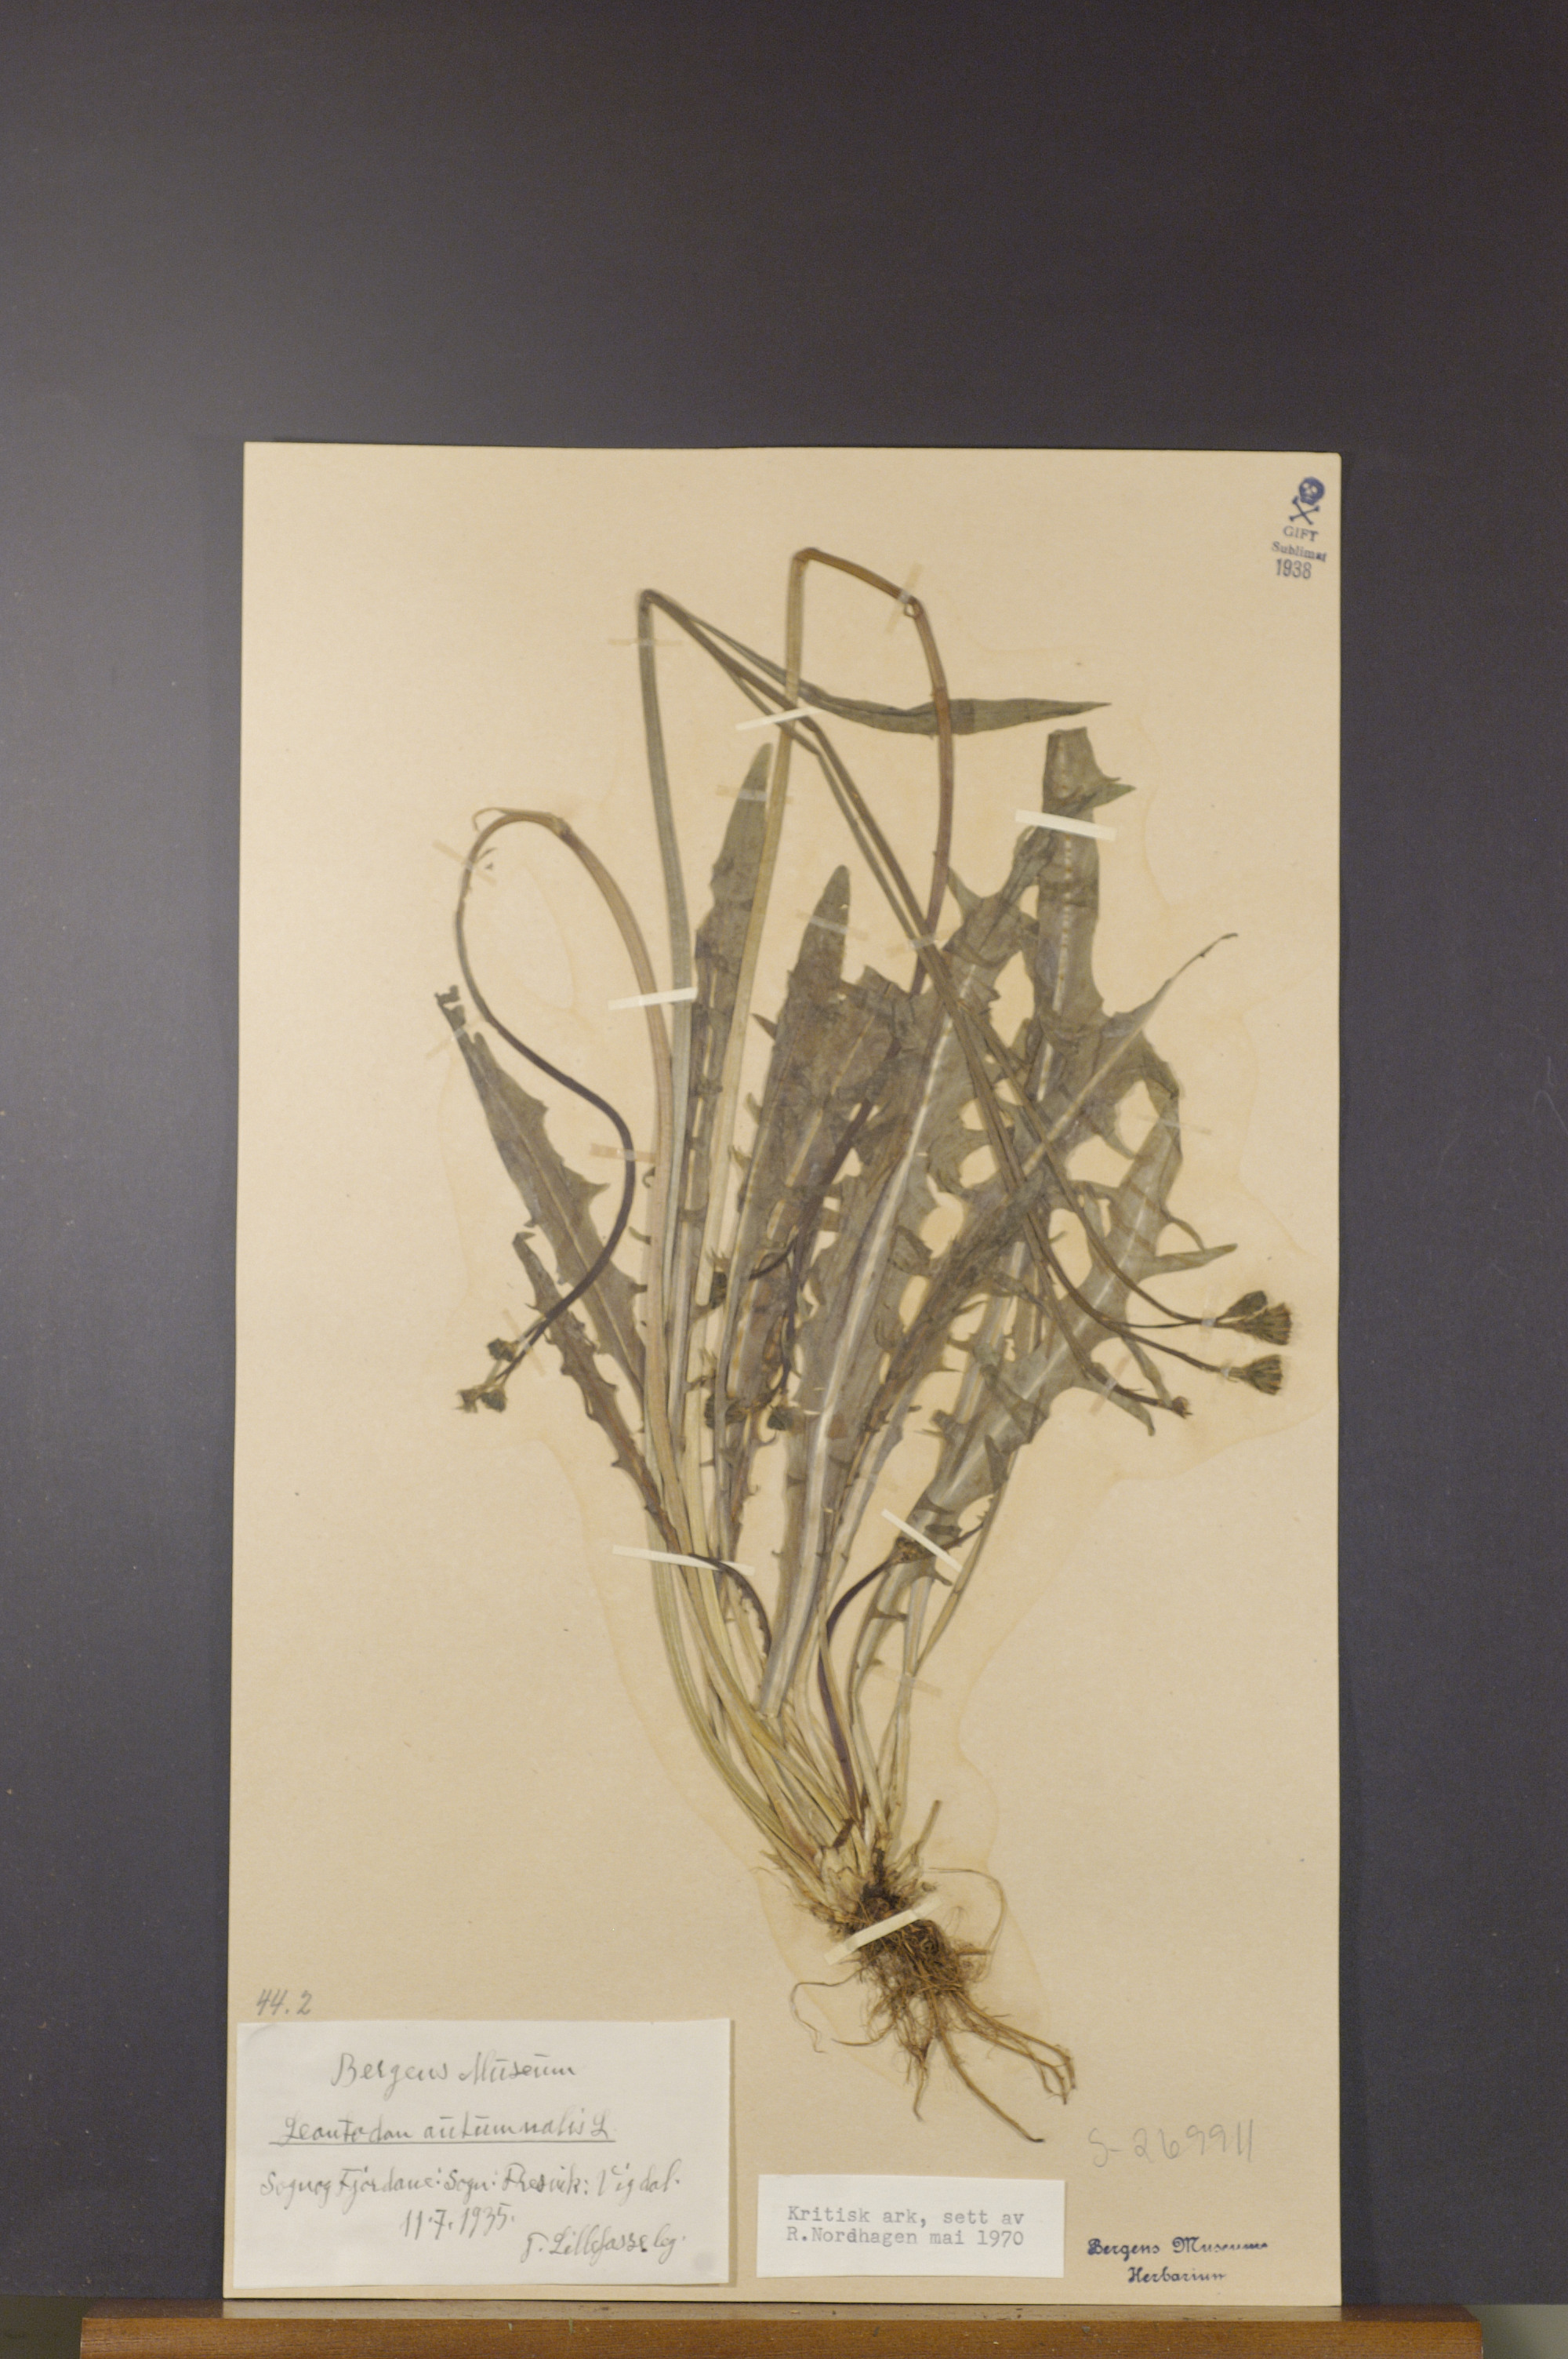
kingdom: Plantae
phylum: Tracheophyta
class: Magnoliopsida
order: Asterales
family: Asteraceae
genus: Scorzoneroides
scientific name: Scorzoneroides autumnalis
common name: Autumn hawkbit
